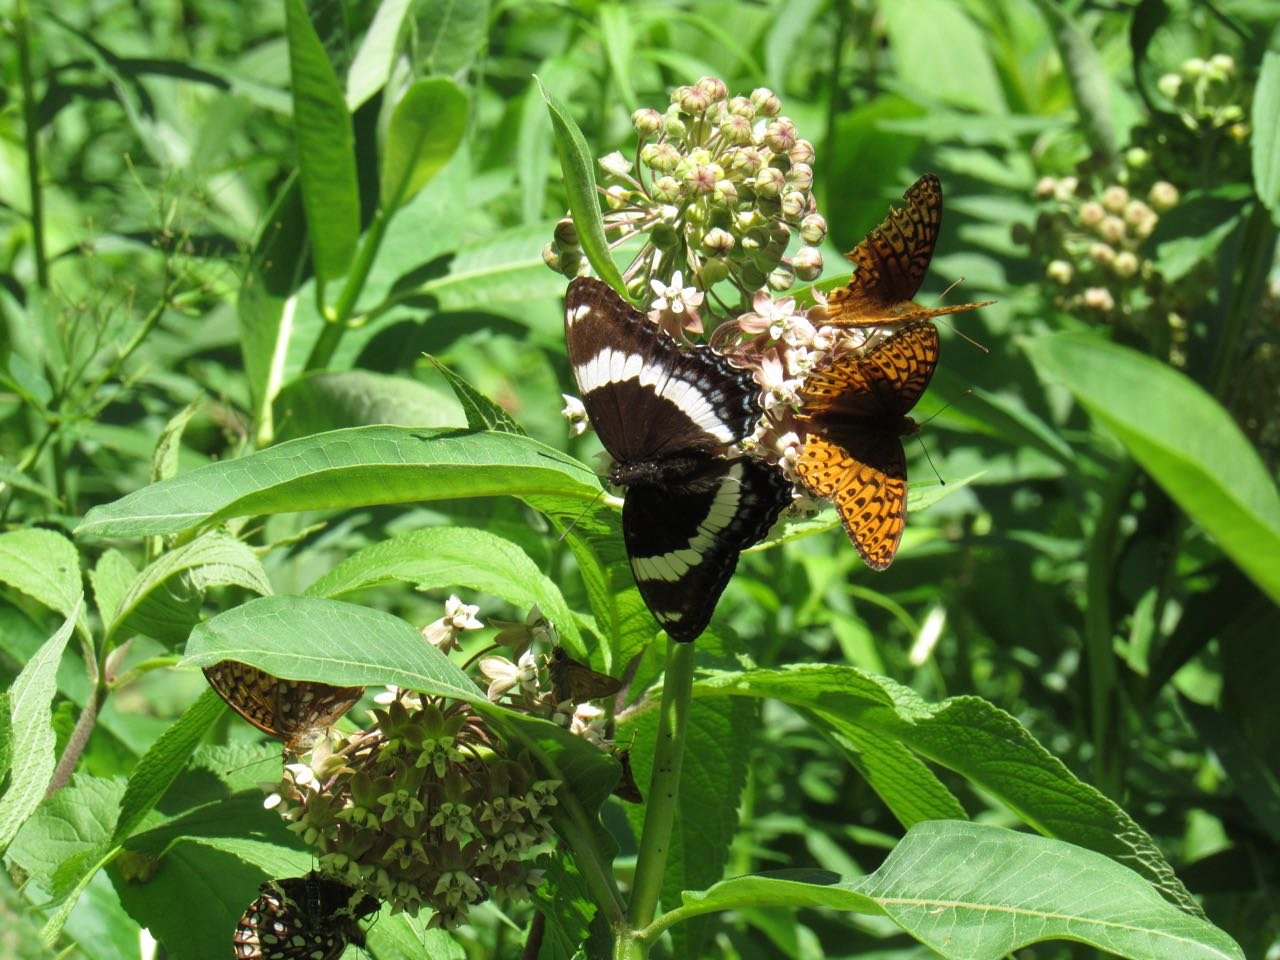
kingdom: Animalia
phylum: Arthropoda
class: Insecta
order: Lepidoptera
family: Nymphalidae
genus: Limenitis
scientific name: Limenitis arthemis
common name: Red-spotted Admiral
